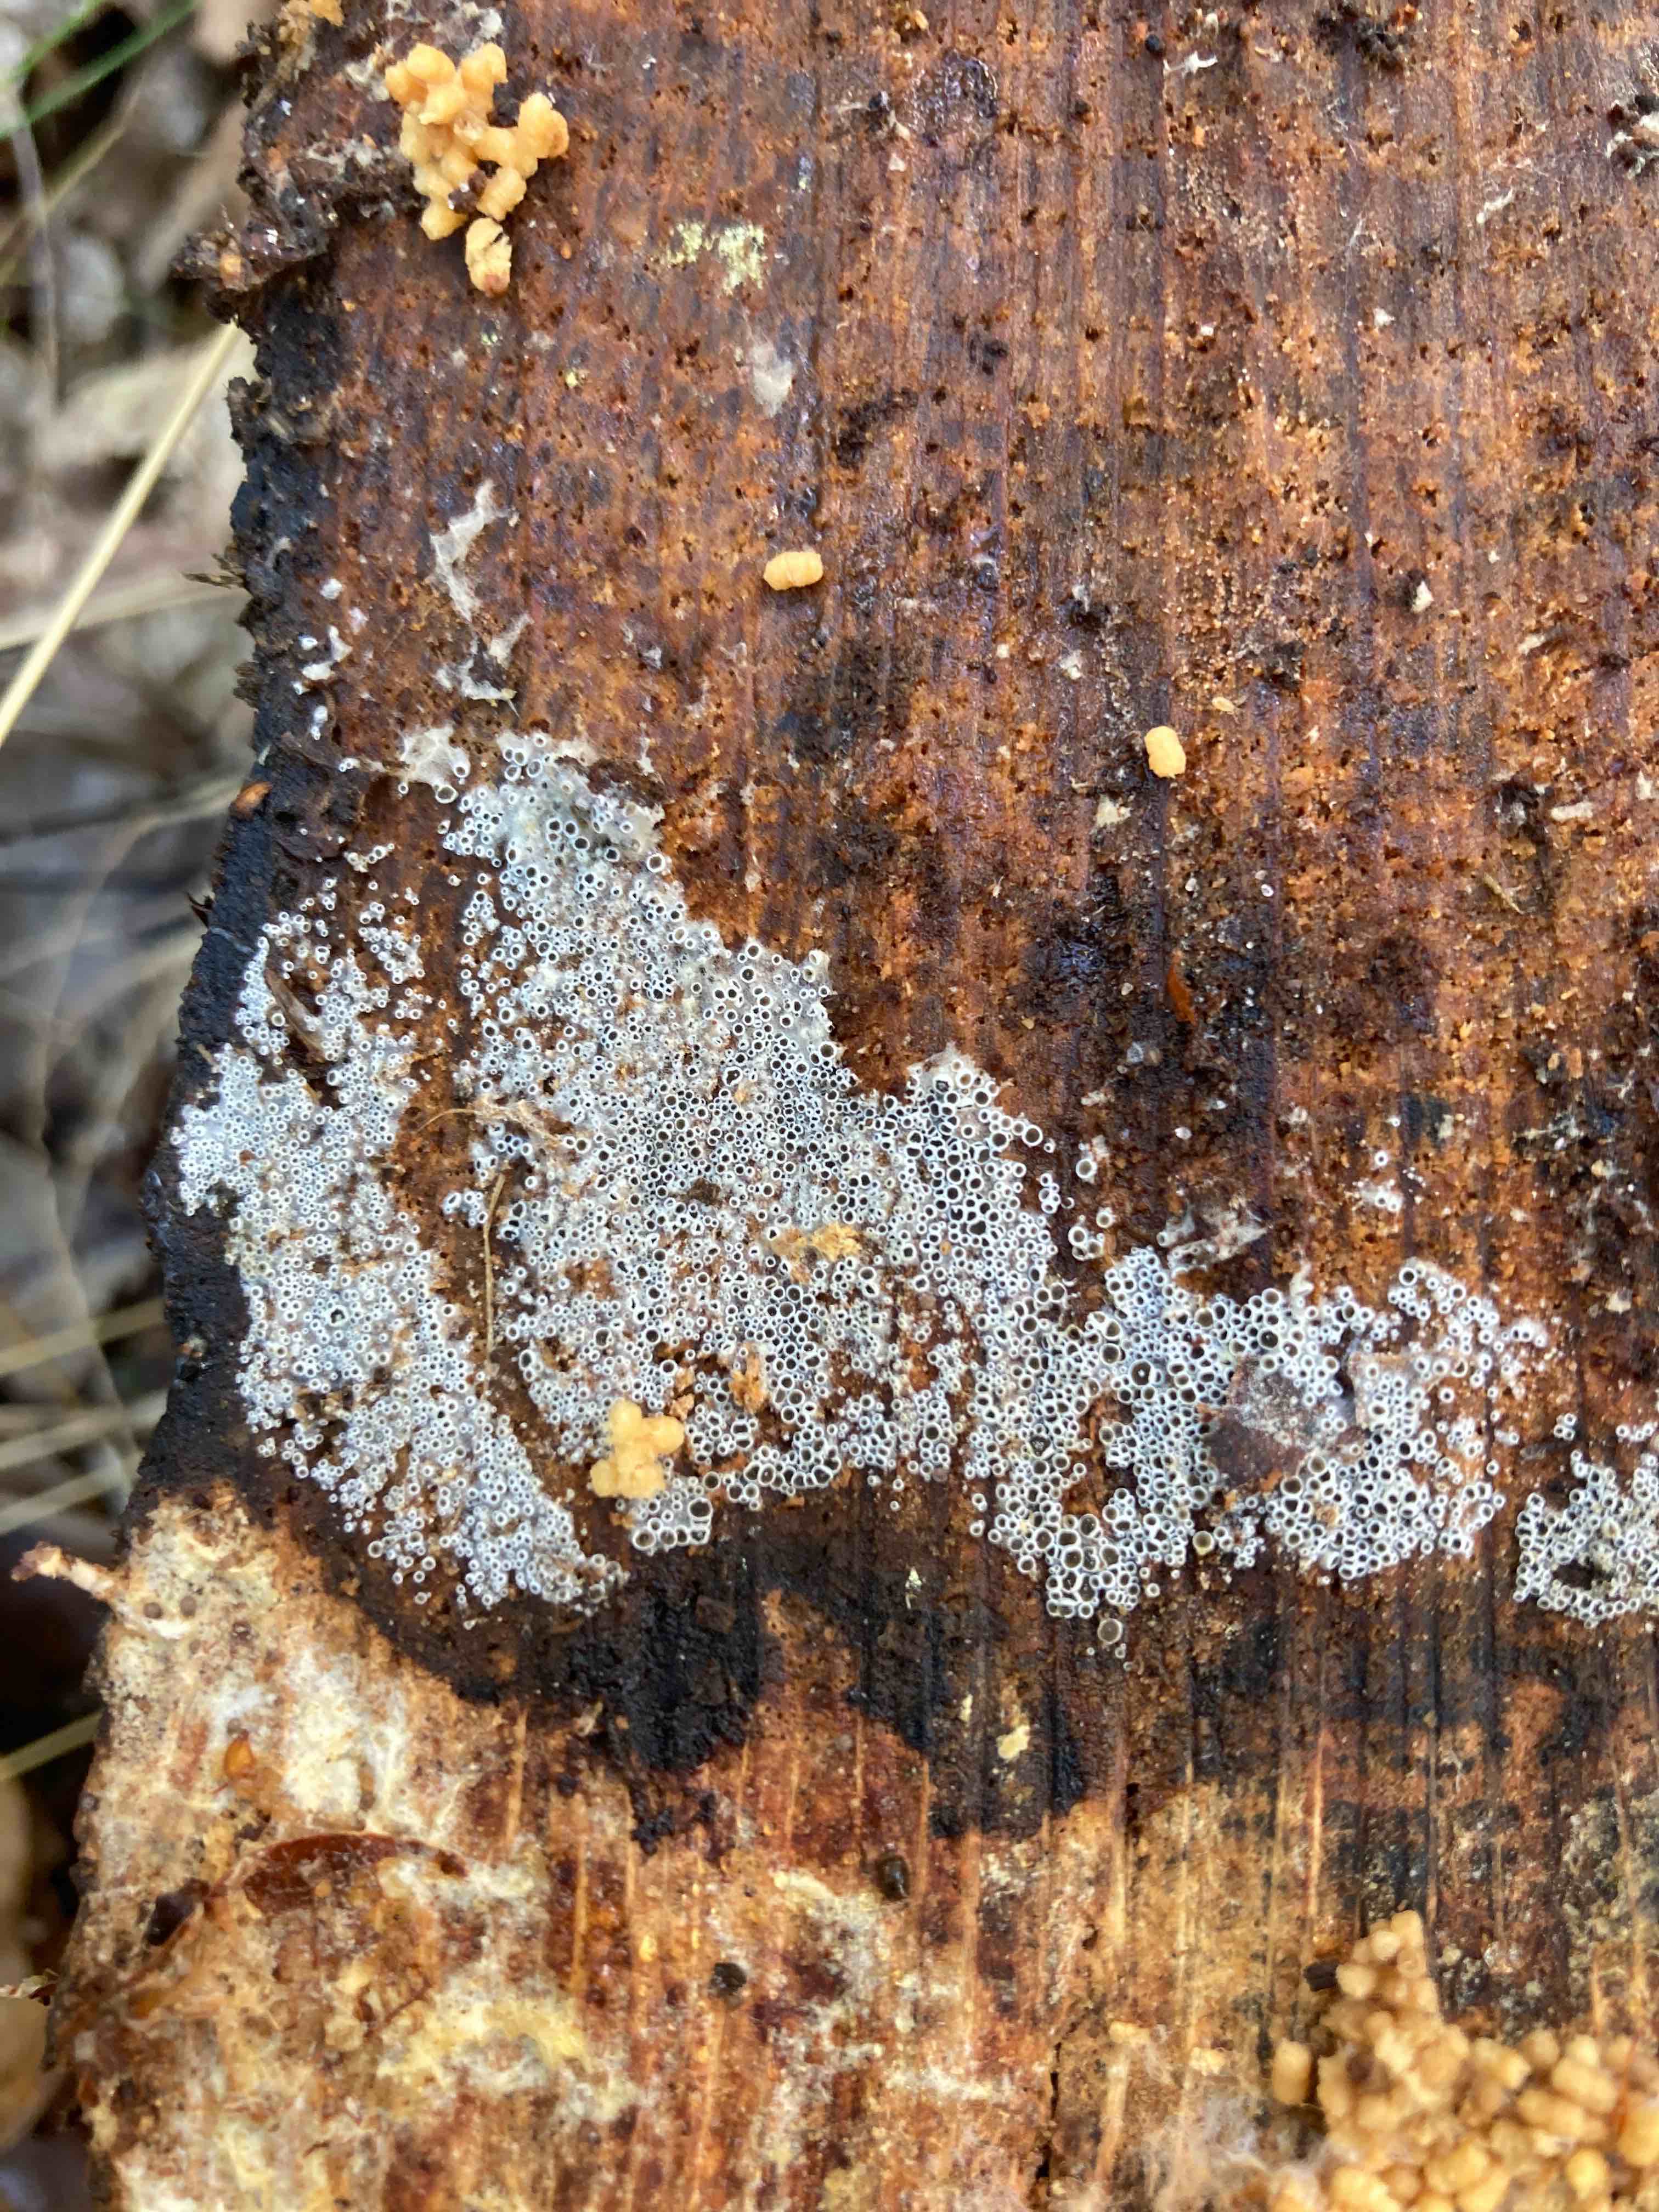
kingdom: Fungi
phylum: Ascomycota
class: Leotiomycetes
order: Helotiales
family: Arachnopezizaceae
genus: Eriopezia
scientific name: Eriopezia caesia
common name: ege-spindskive
